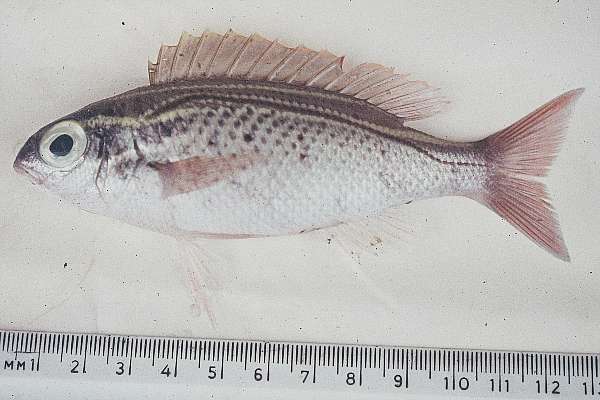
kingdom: Animalia
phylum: Chordata
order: Perciformes
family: Nemipteridae
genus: Scolopsis
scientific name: Scolopsis ghanam
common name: Arabian monocle bream
